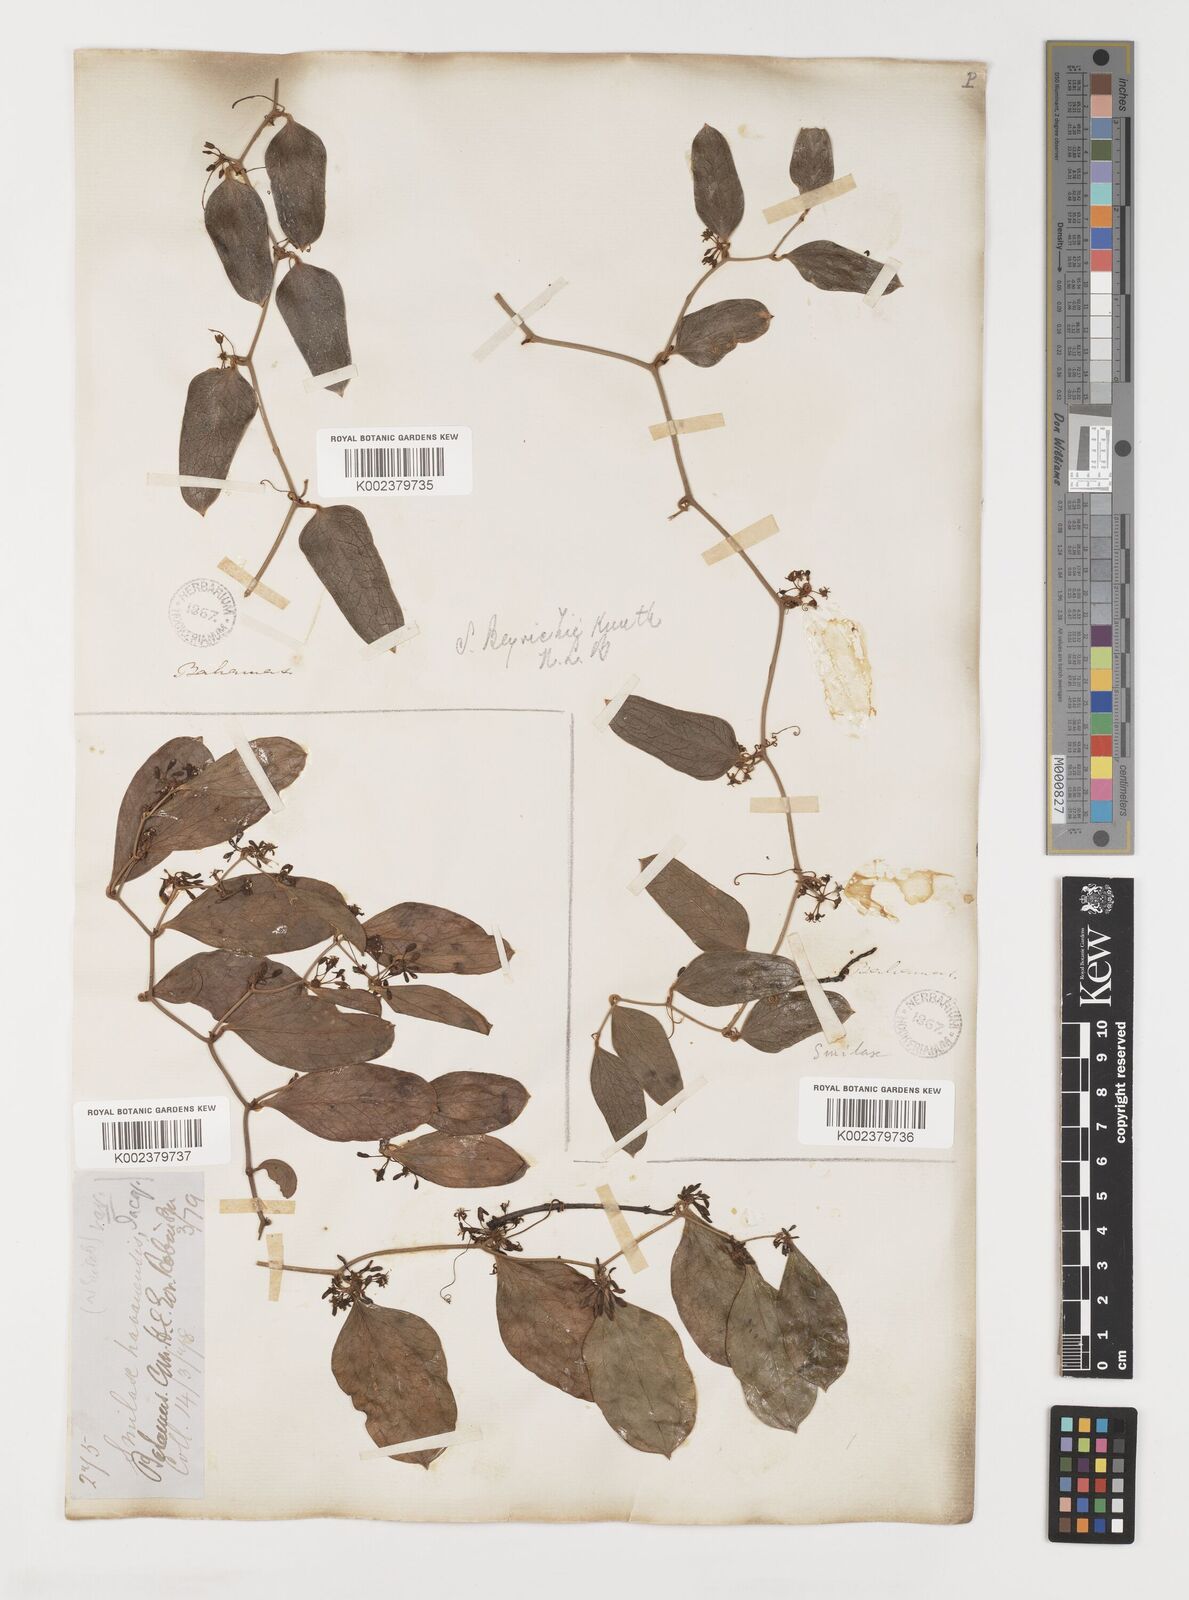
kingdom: Plantae
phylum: Tracheophyta
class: Liliopsida
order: Liliales
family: Smilacaceae
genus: Smilax
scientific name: Smilax auriculata
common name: Wild bamboo
